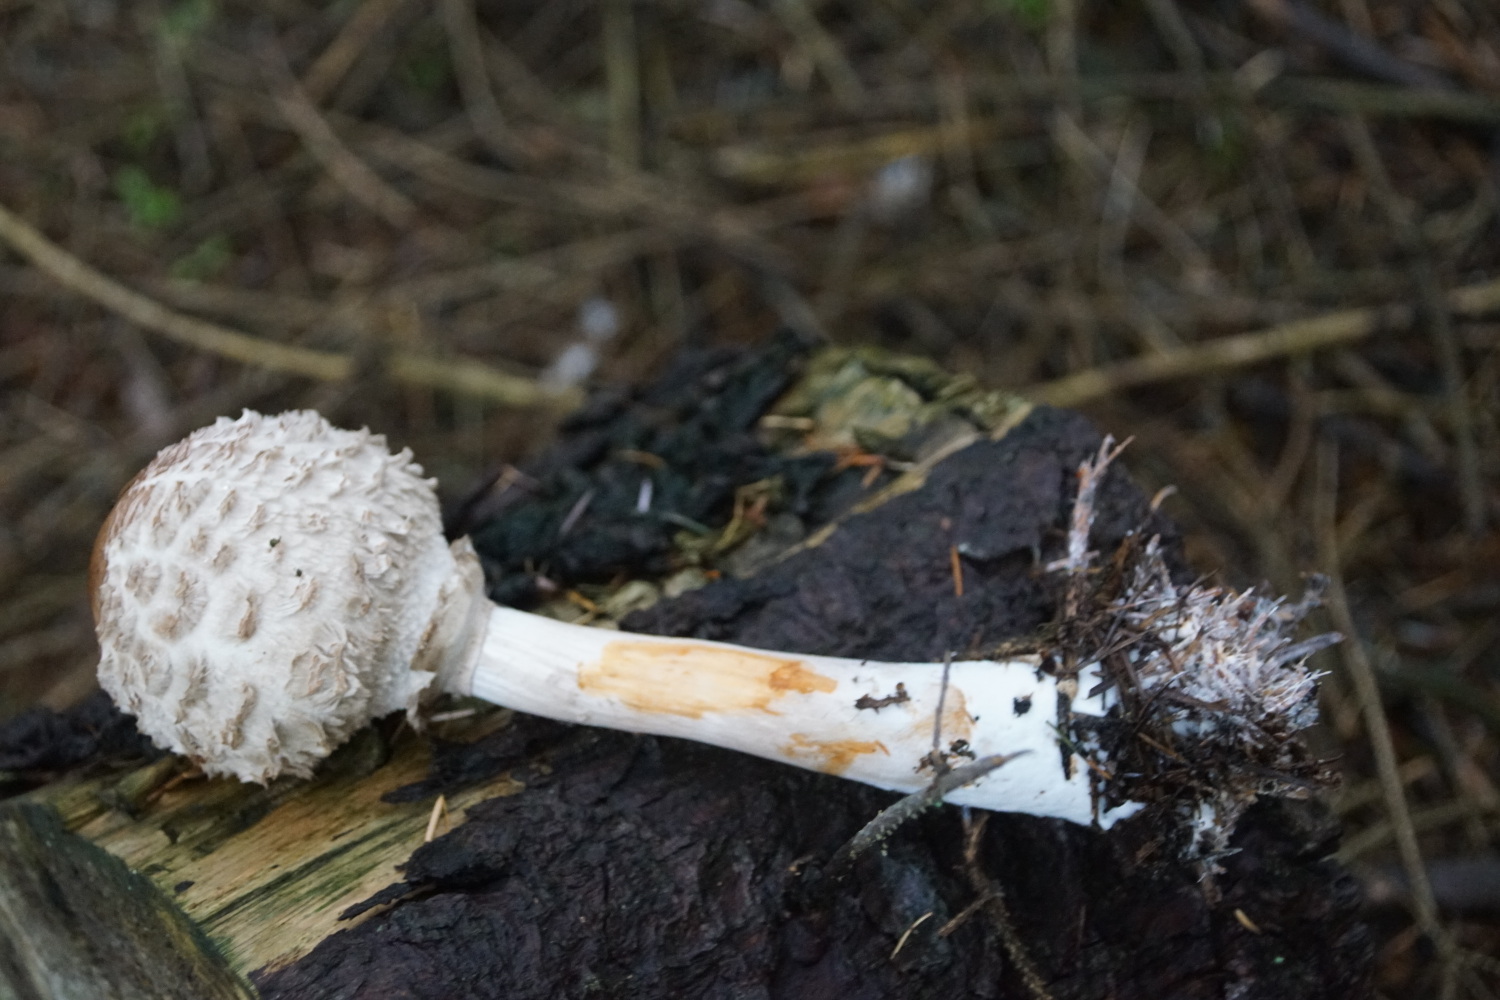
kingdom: Fungi
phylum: Basidiomycota
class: Agaricomycetes
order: Agaricales
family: Agaricaceae
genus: Chlorophyllum
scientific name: Chlorophyllum olivieri
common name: almindelig rabarberhat
